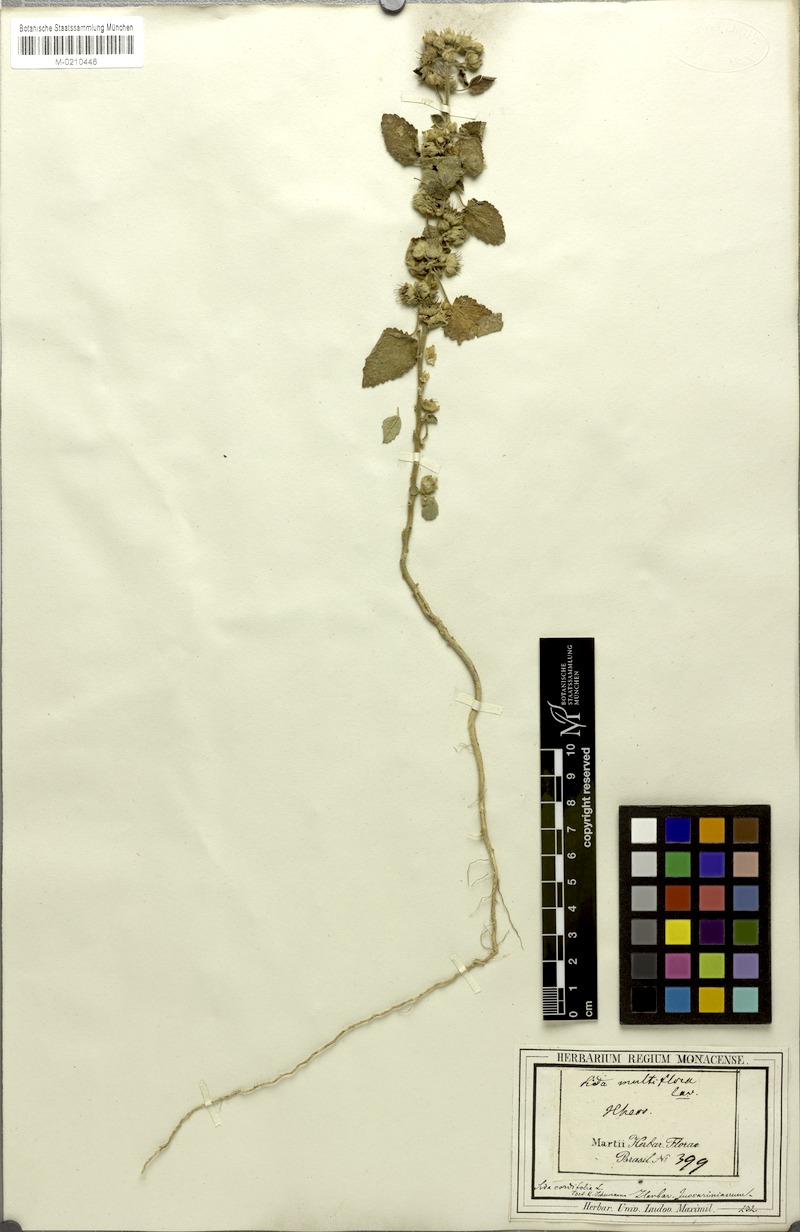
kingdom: Plantae
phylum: Tracheophyta
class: Magnoliopsida
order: Malvales
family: Malvaceae
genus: Sida
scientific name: Sida cordifolia
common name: Ilima
